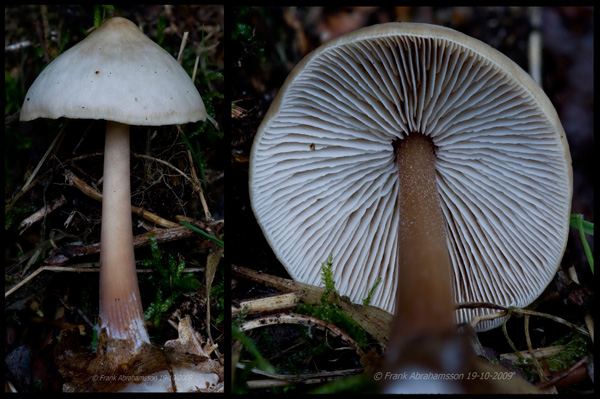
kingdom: Fungi
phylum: Basidiomycota
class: Agaricomycetes
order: Agaricales
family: Omphalotaceae
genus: Rhodocollybia
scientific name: Rhodocollybia asema
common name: horngrå fladhat
